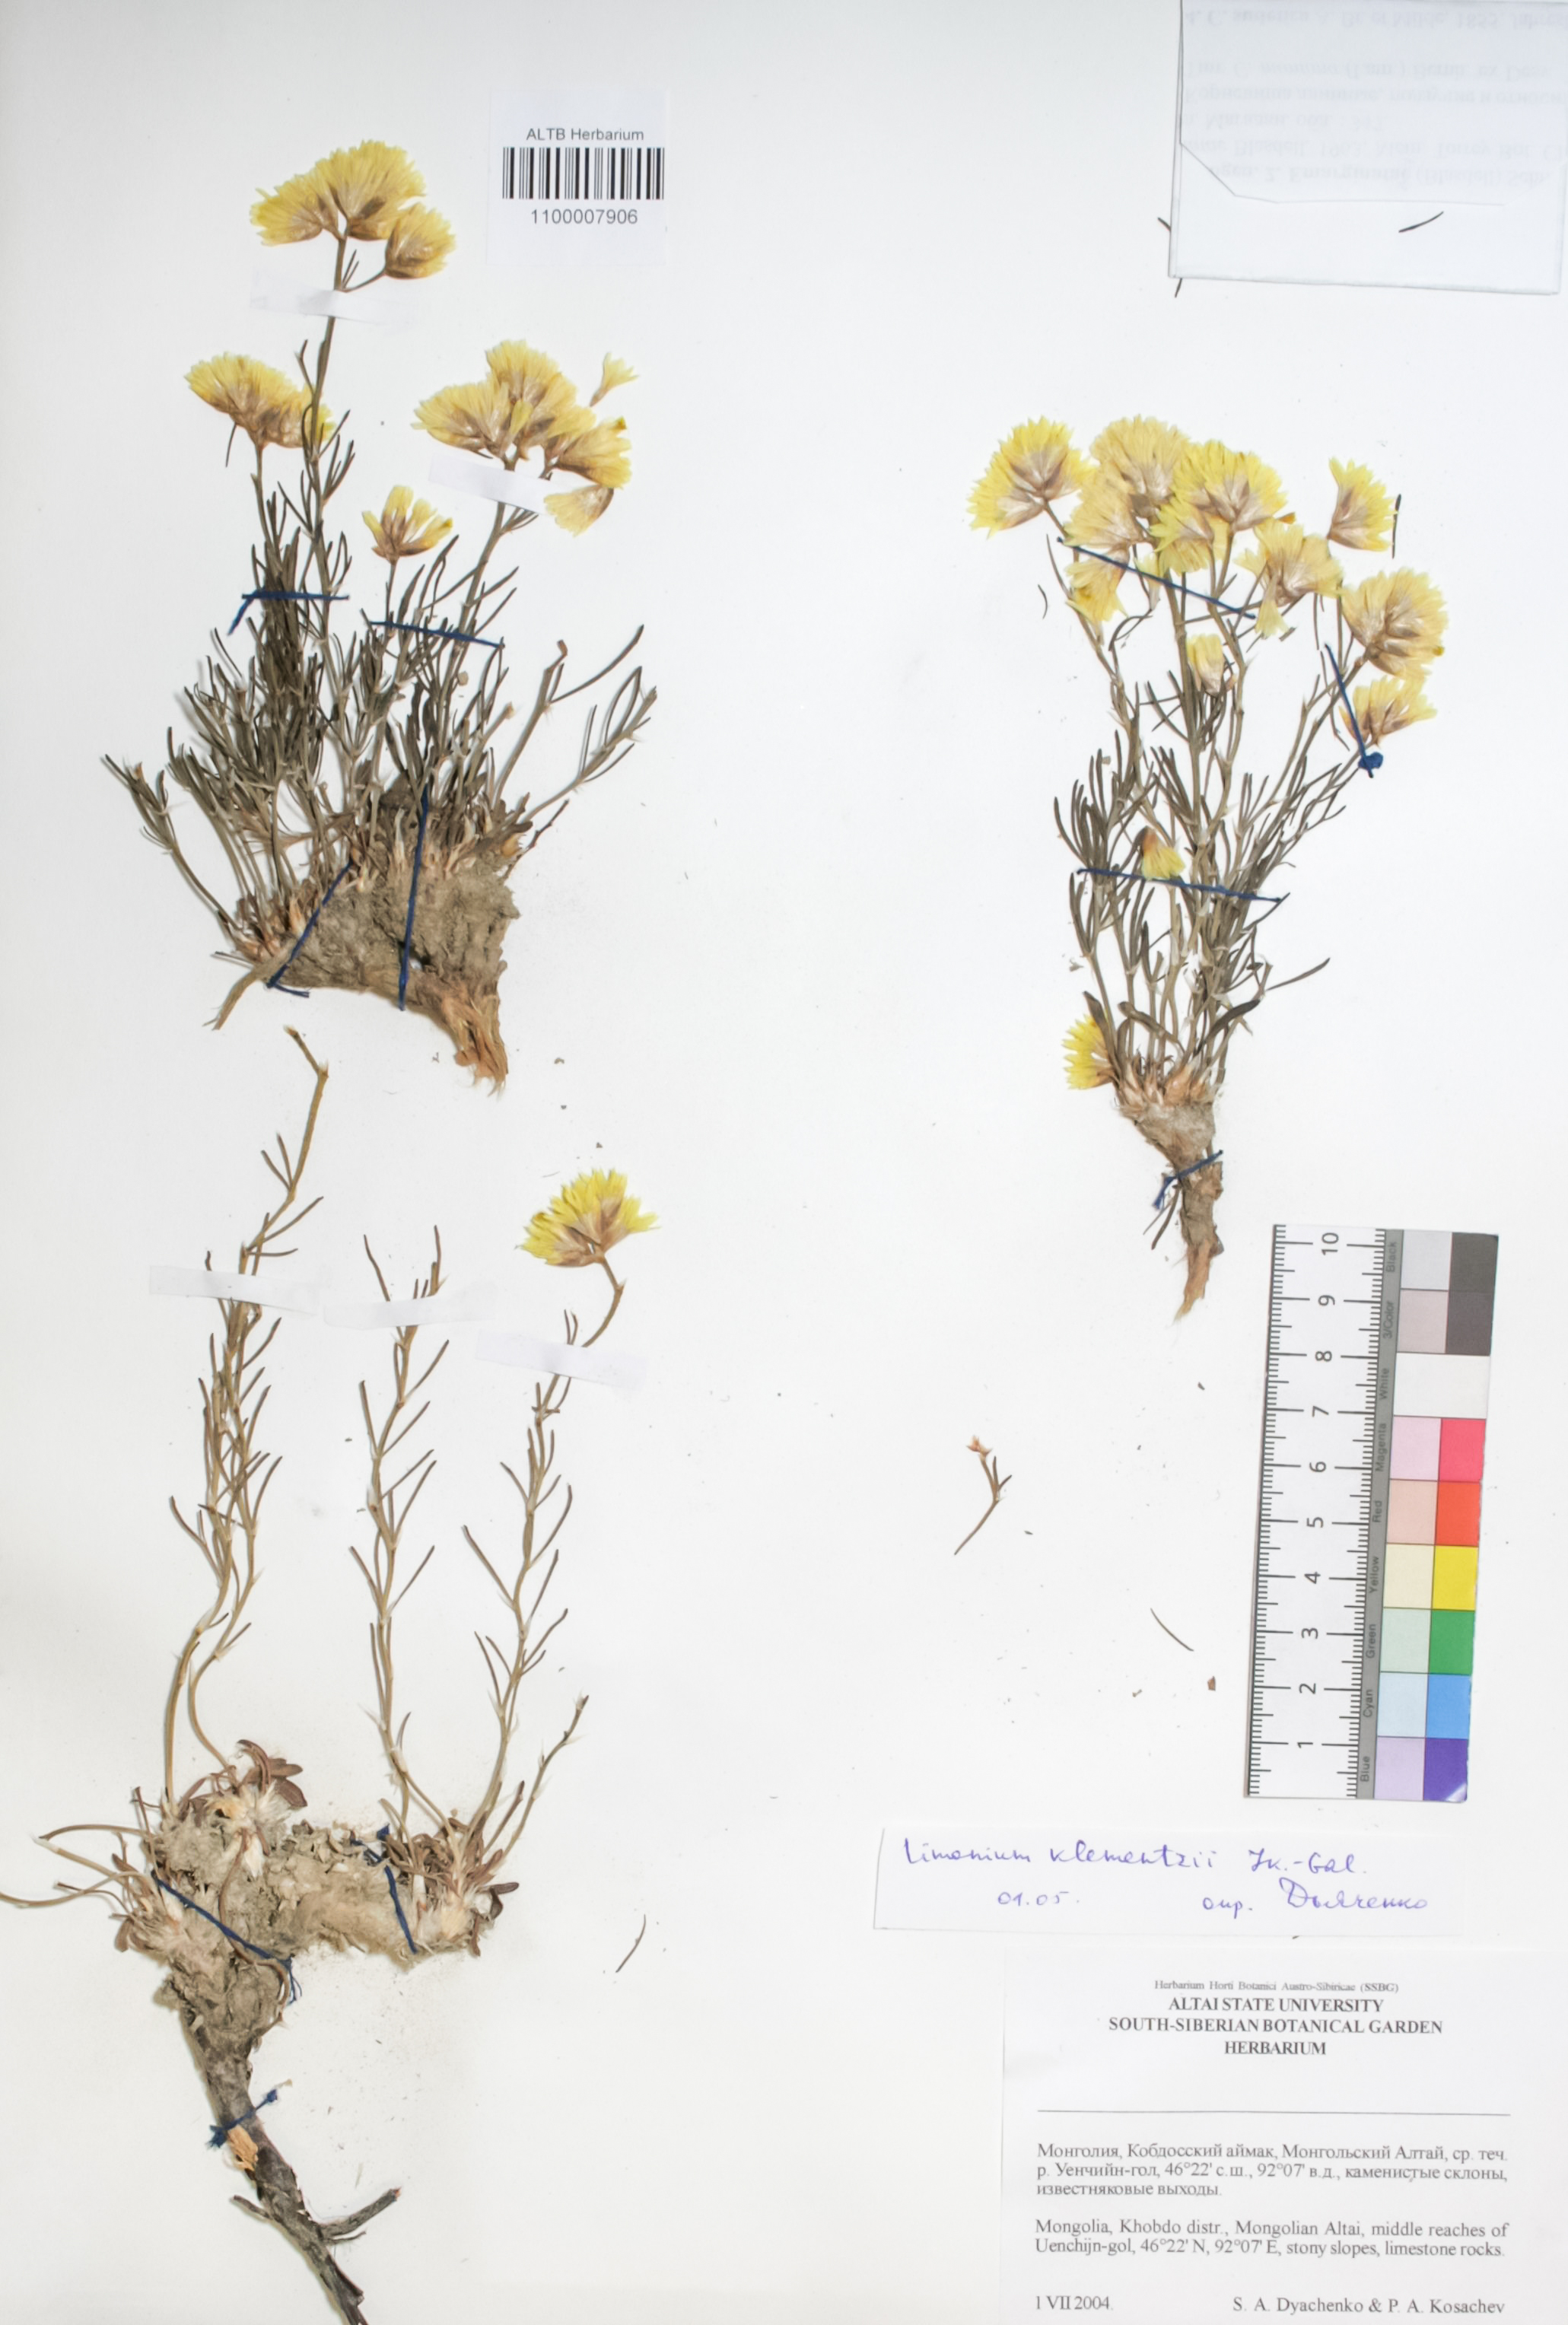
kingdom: Plantae
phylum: Tracheophyta
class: Magnoliopsida
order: Caryophyllales
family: Plumbaginaceae
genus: Limonium
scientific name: Limonium gmelini
